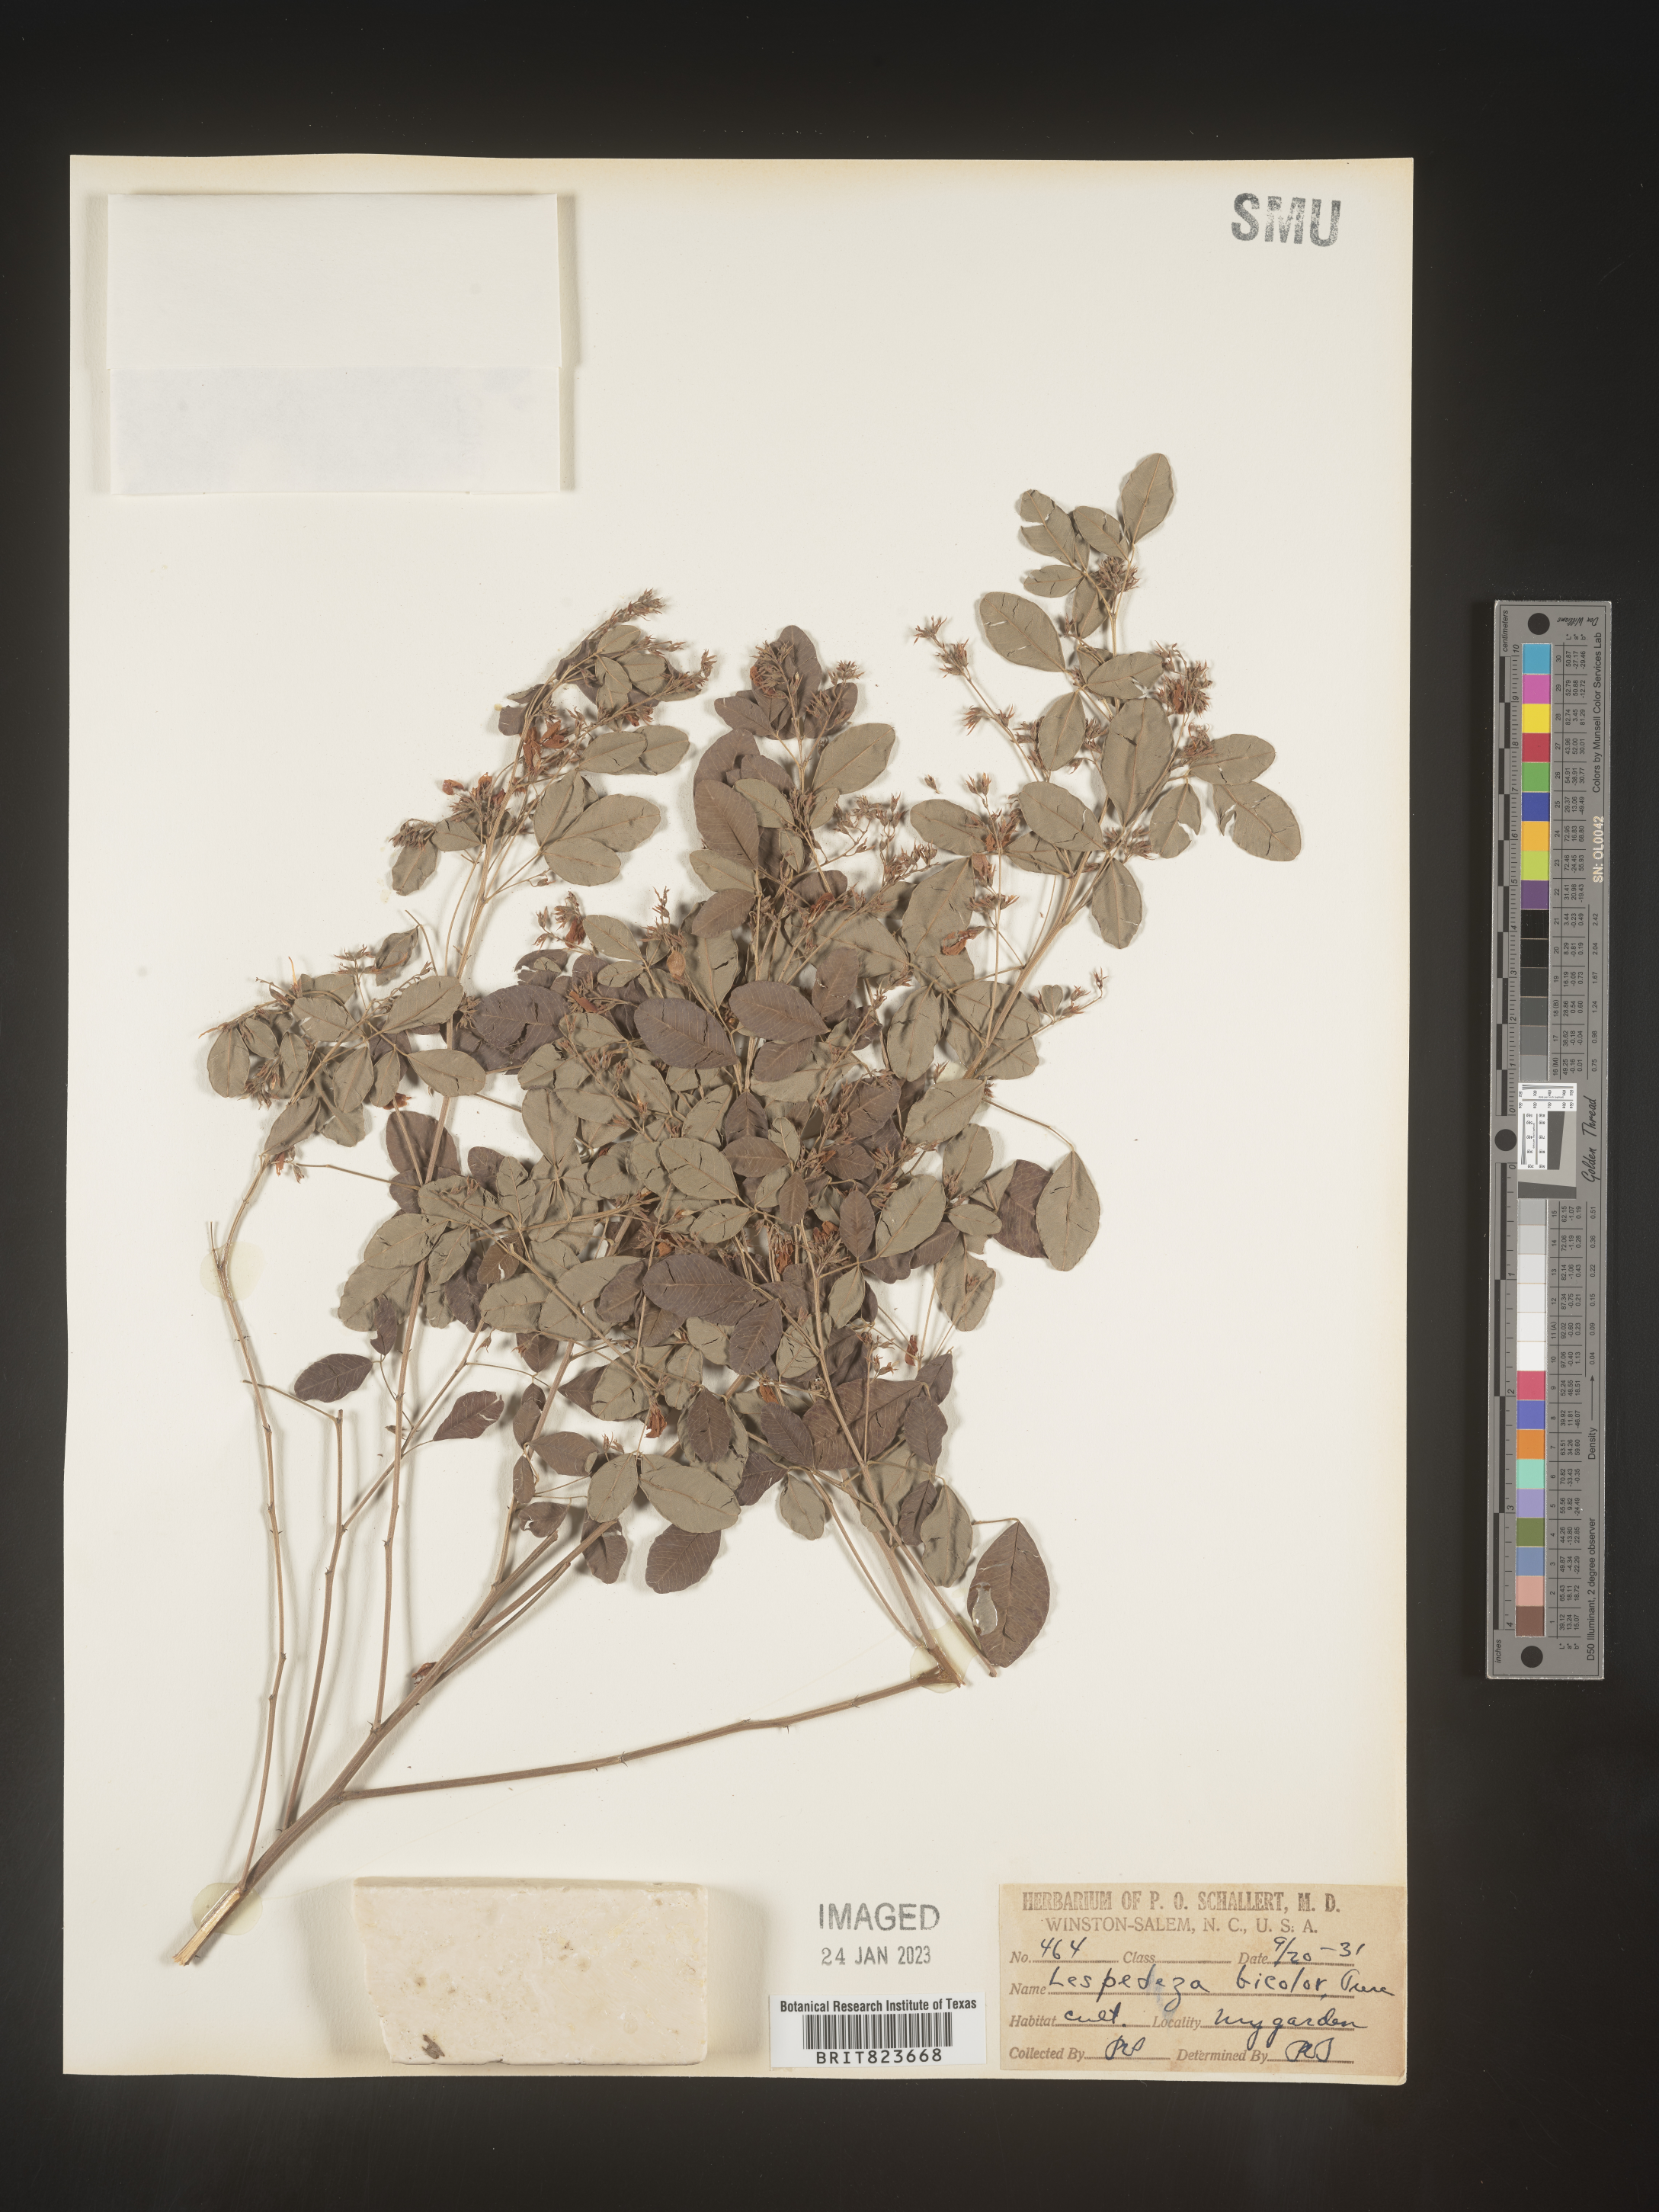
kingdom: Plantae
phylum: Tracheophyta
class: Magnoliopsida
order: Fabales
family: Fabaceae
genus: Lespedeza
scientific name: Lespedeza
